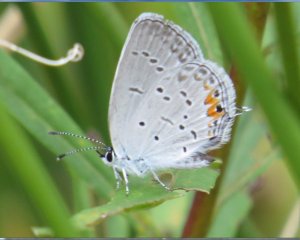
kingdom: Animalia
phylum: Arthropoda
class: Insecta
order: Lepidoptera
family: Lycaenidae
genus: Elkalyce
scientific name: Elkalyce comyntas
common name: Eastern Tailed-Blue
